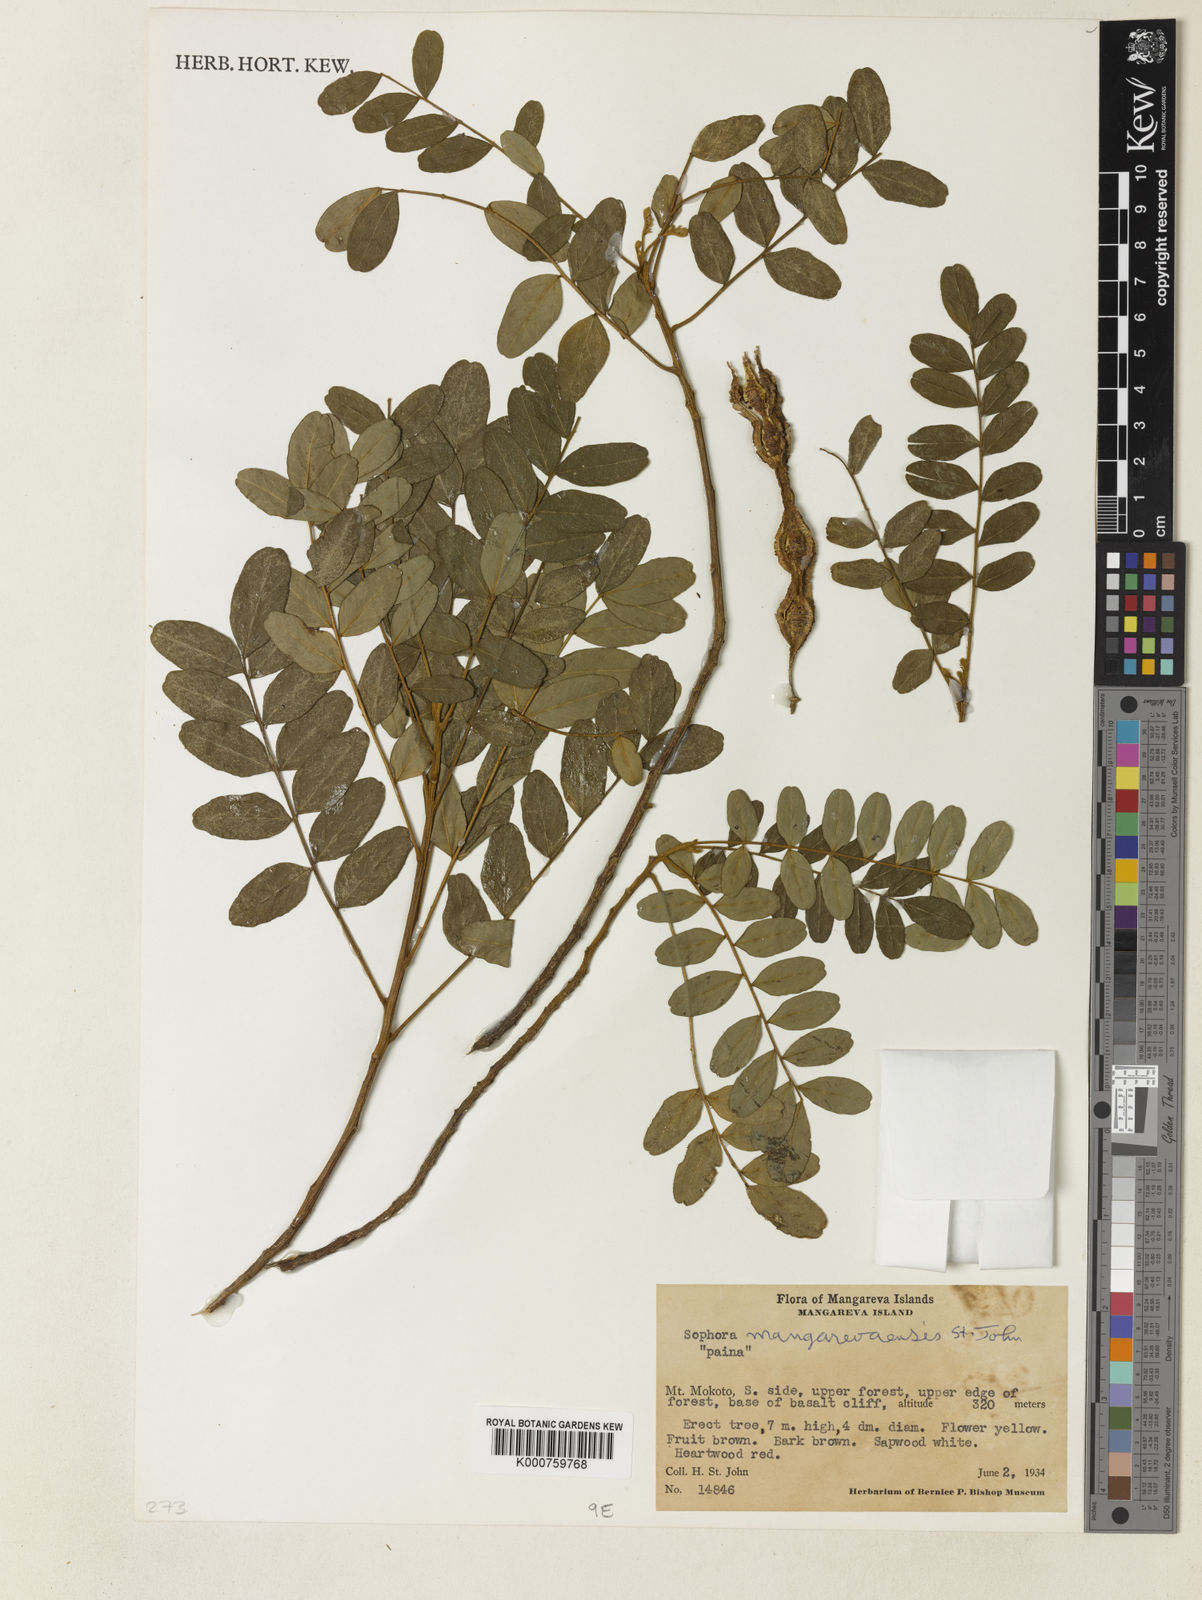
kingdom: Plantae
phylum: Tracheophyta
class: Magnoliopsida
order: Fabales
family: Fabaceae
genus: Sophora
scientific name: Sophora mangarevaensis
